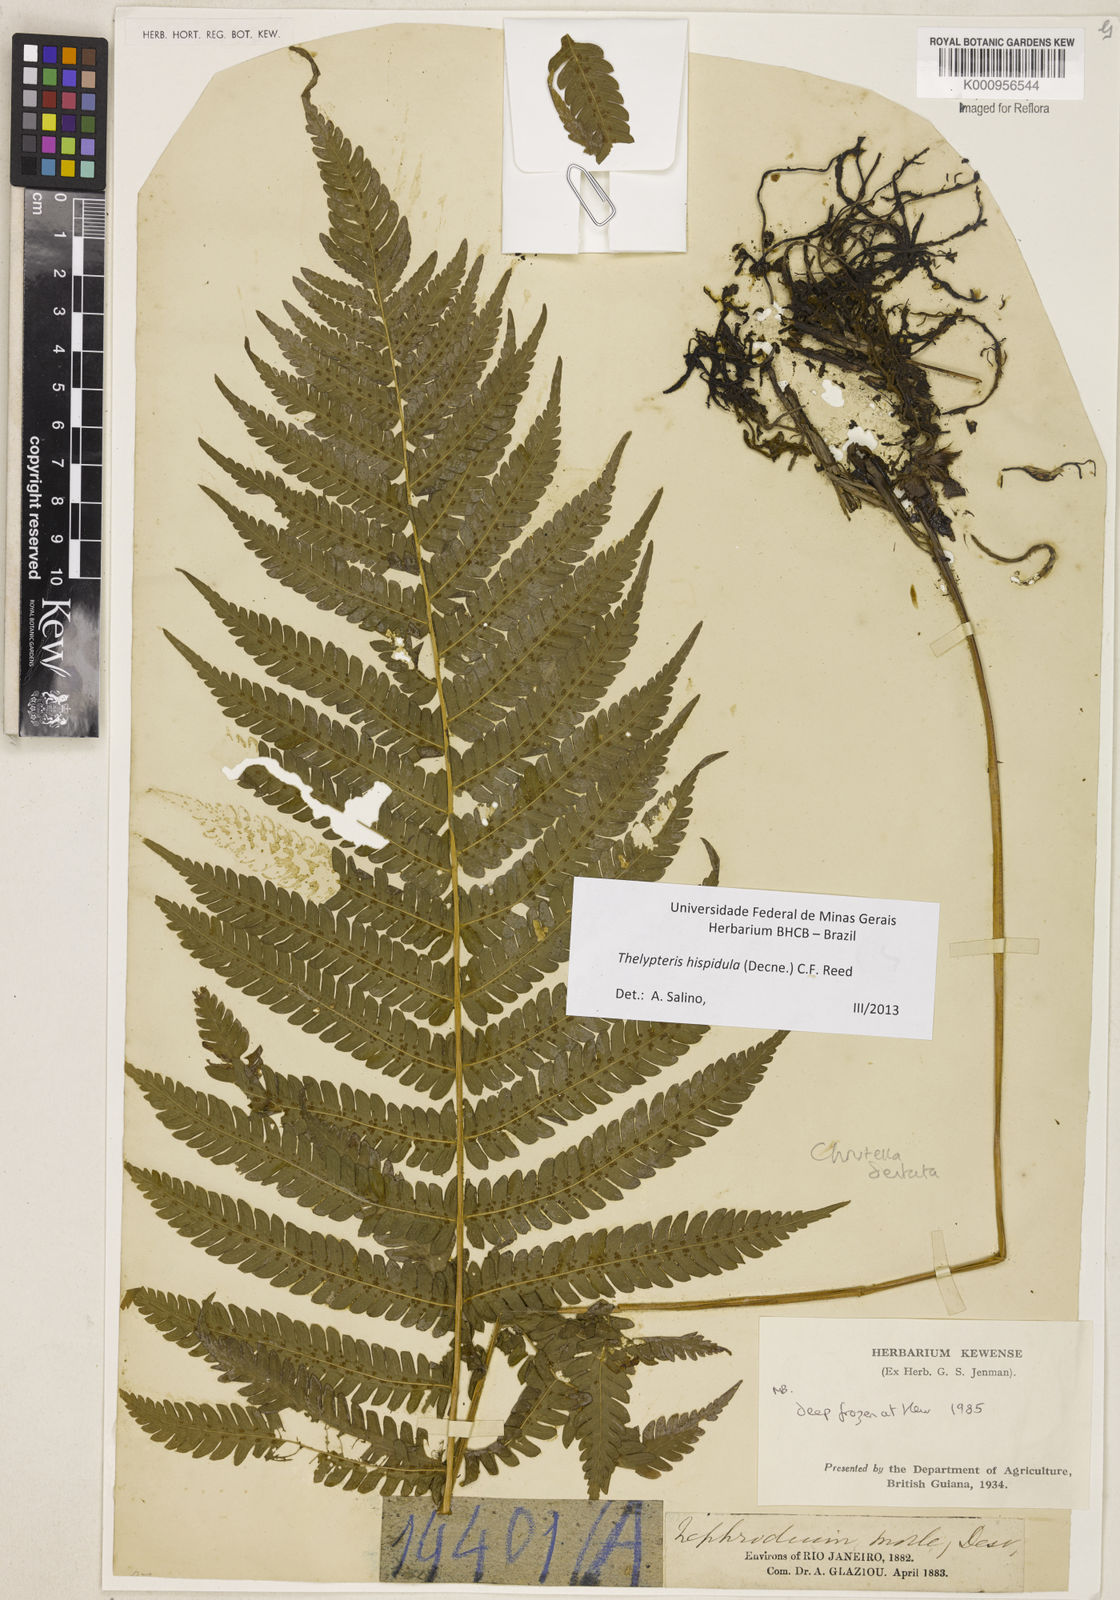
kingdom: Plantae
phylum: Tracheophyta
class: Polypodiopsida
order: Polypodiales
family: Thelypteridaceae
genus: Christella
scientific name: Christella hispidula
